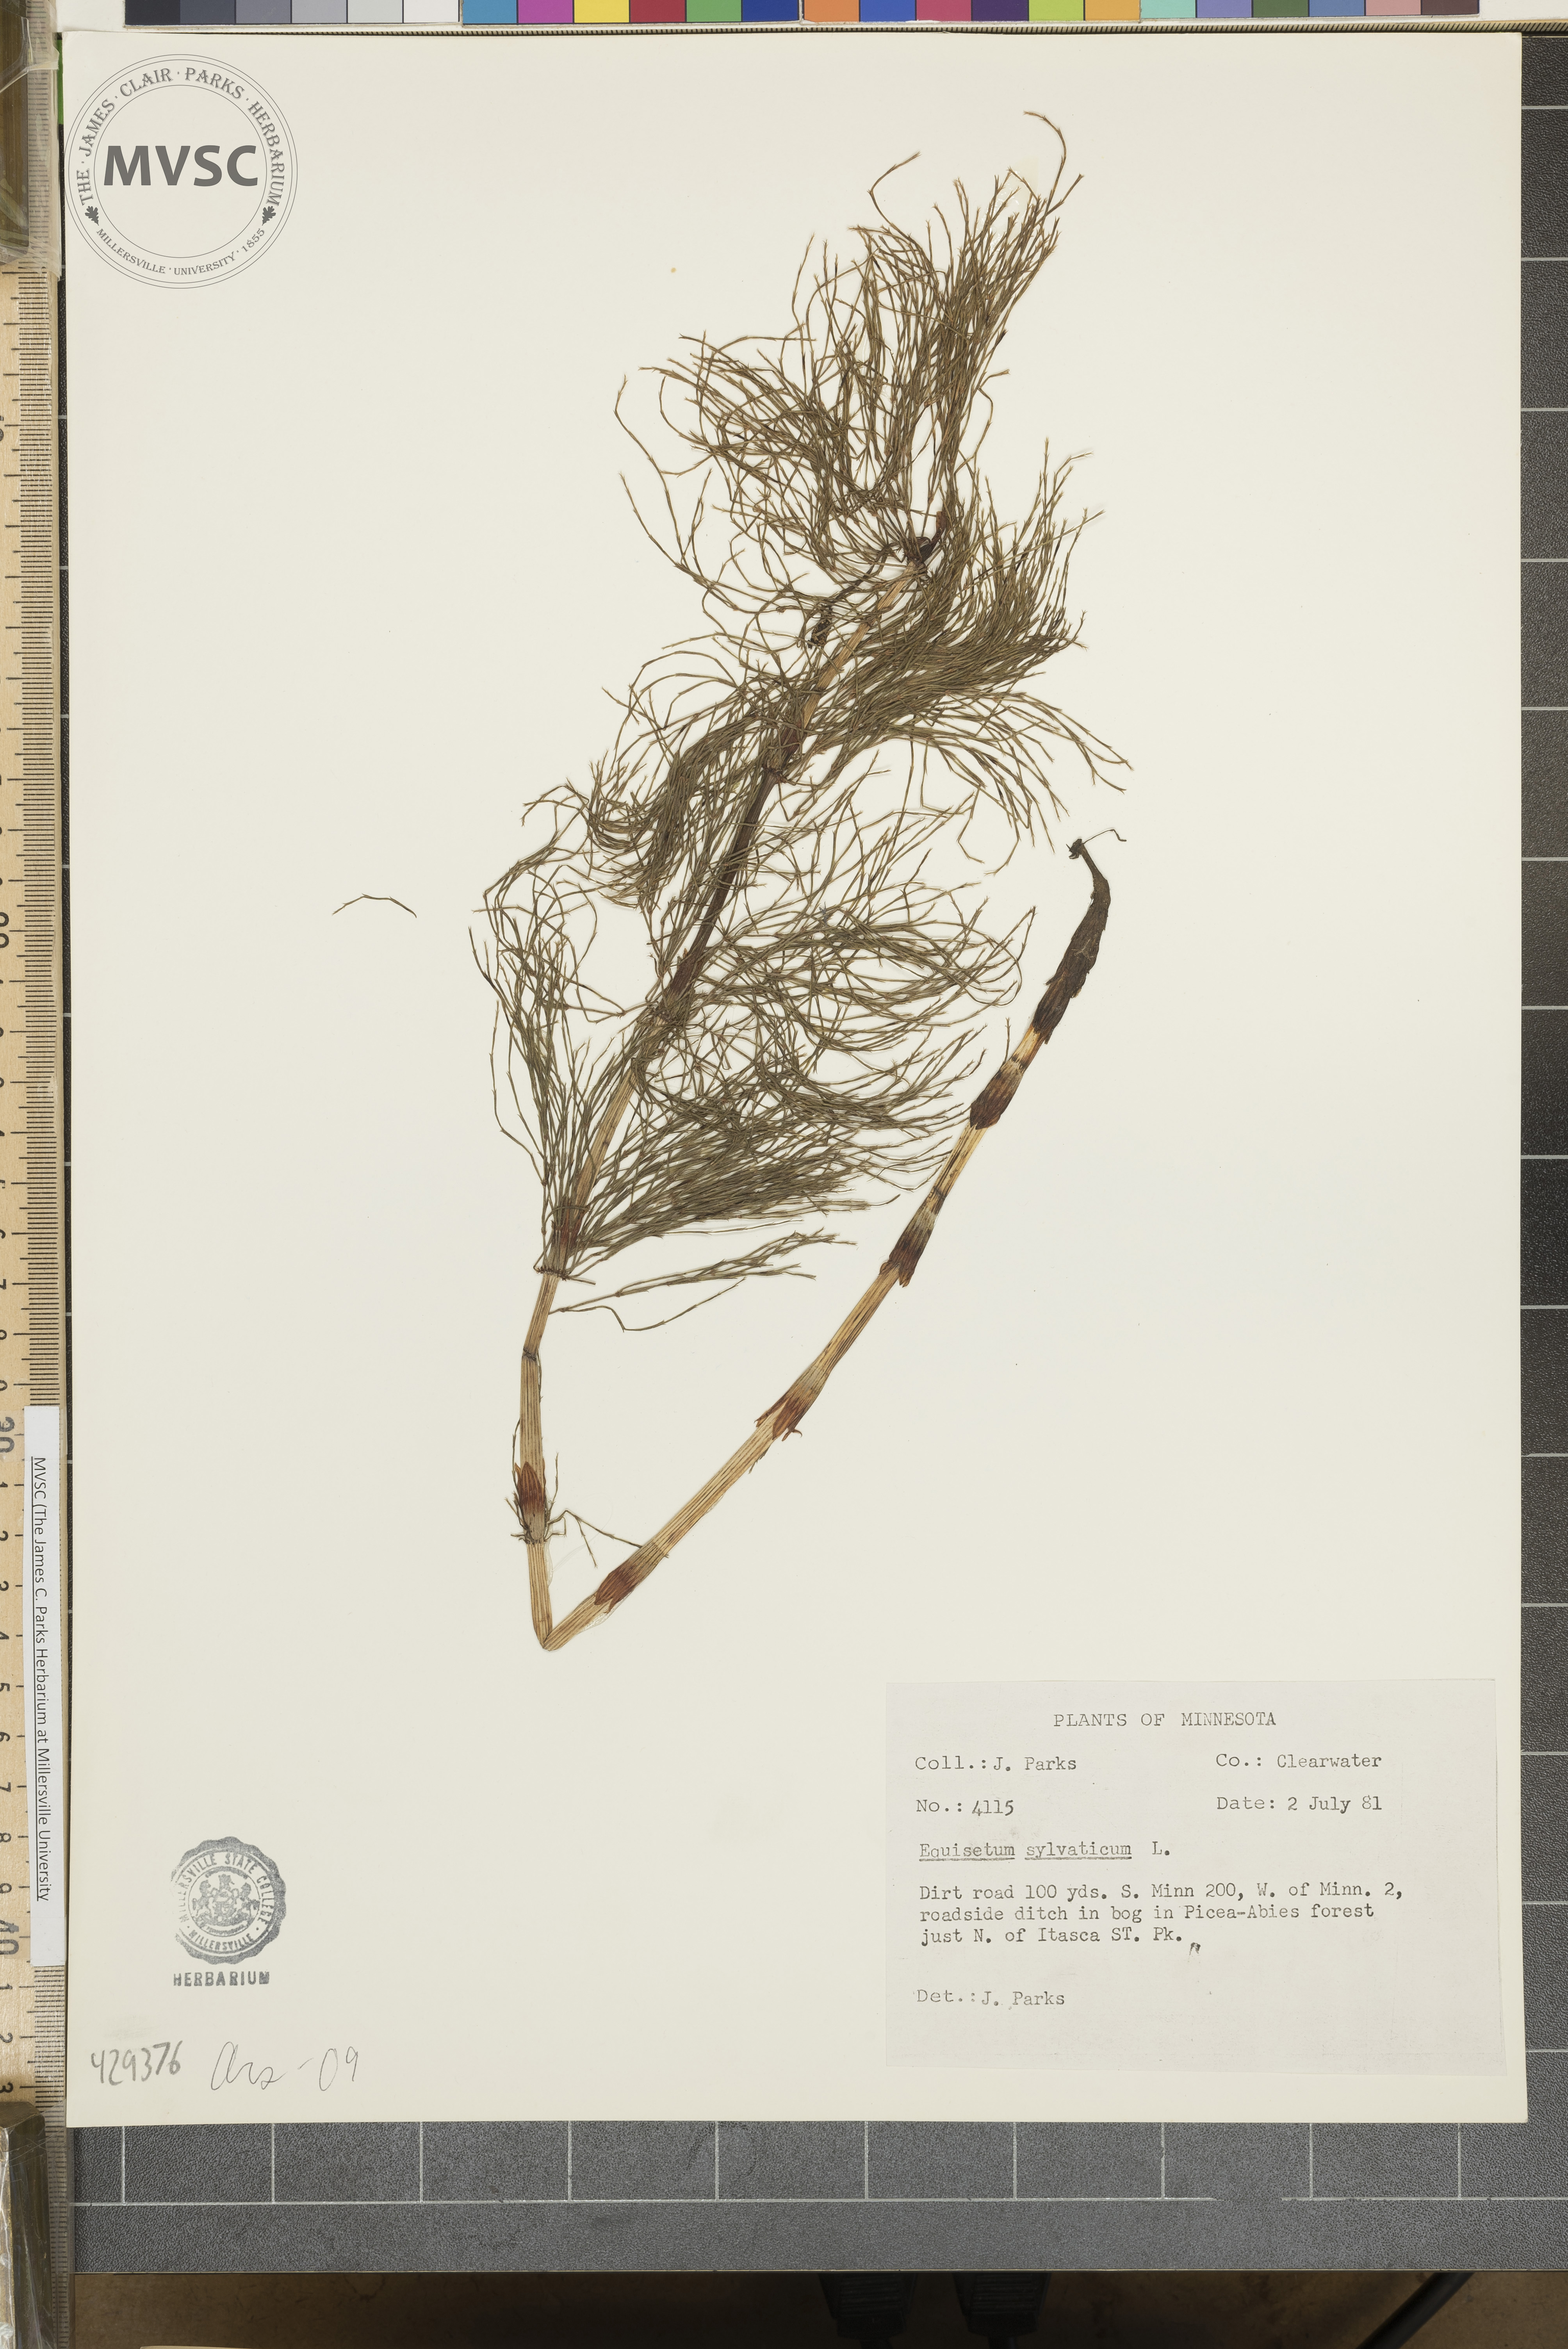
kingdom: Plantae
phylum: Tracheophyta
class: Polypodiopsida
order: Equisetales
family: Equisetaceae
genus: Equisetum
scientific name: Equisetum sylvaticum
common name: Wood horsetail
